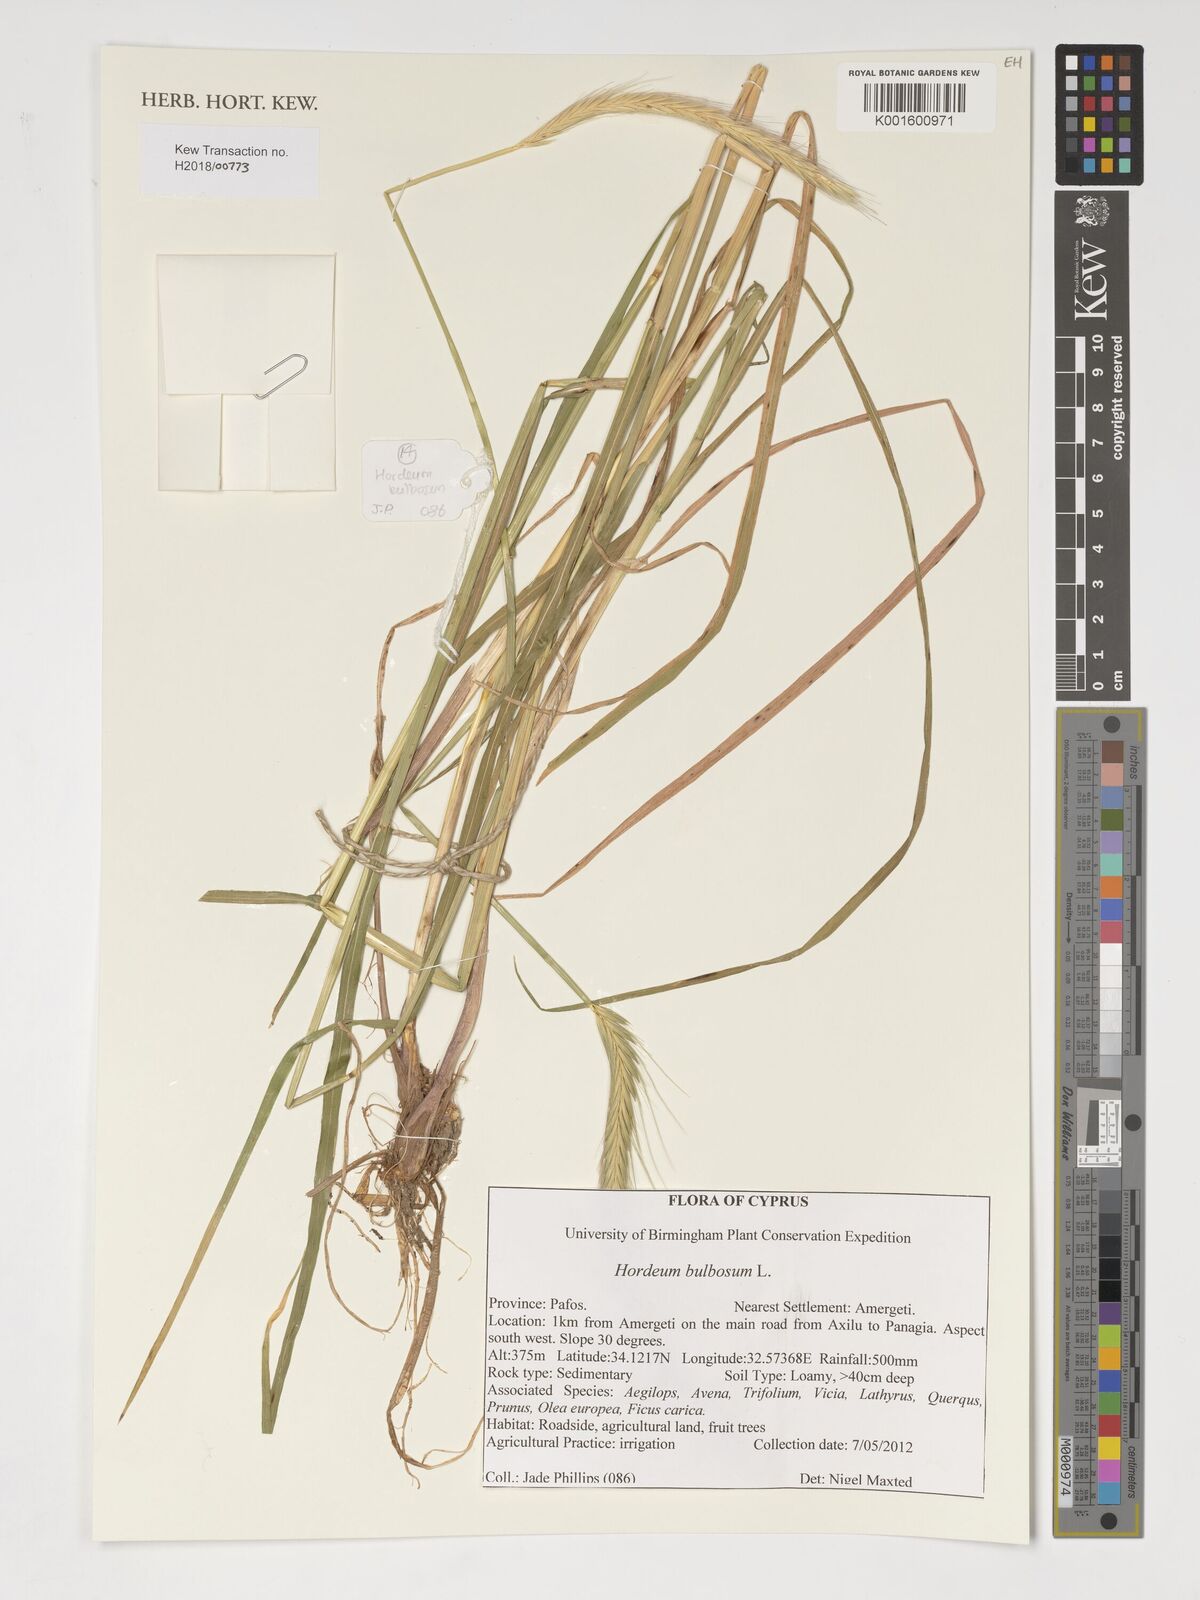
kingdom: Plantae
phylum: Tracheophyta
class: Liliopsida
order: Poales
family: Poaceae
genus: Triticum
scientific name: Triticum aestivum
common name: Common wheat
